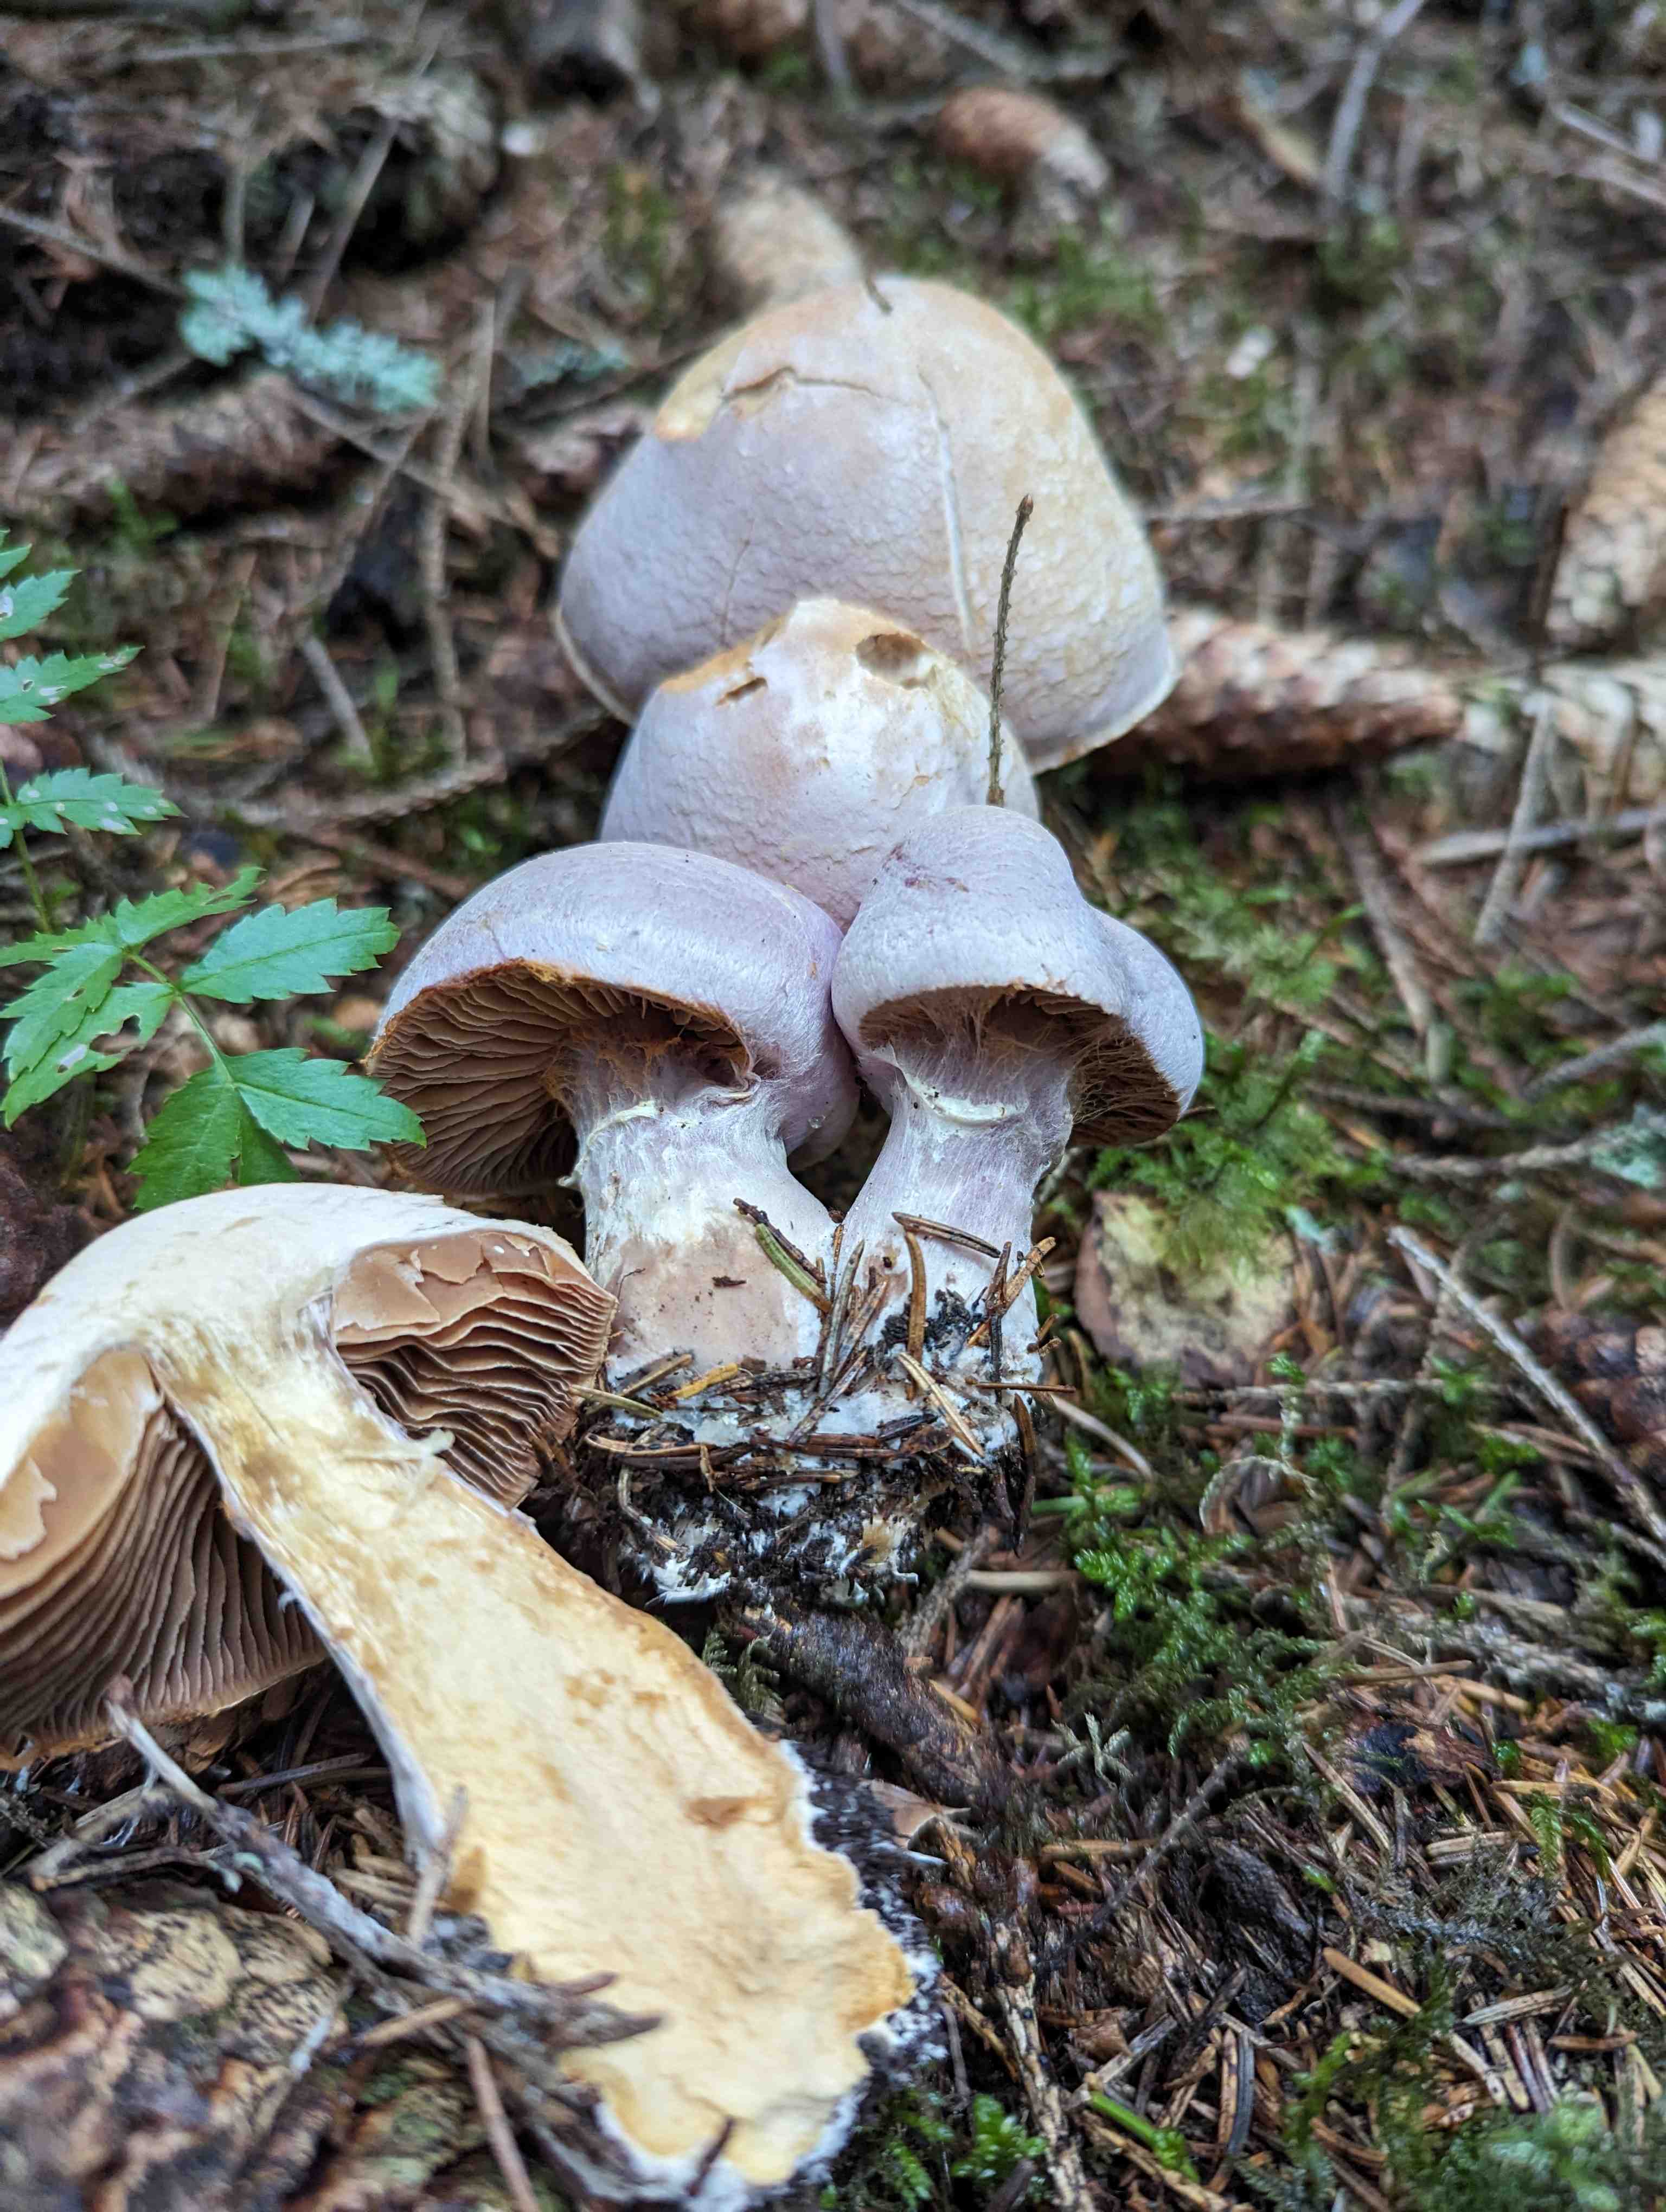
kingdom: Fungi
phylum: Basidiomycota
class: Agaricomycetes
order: Agaricales
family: Cortinariaceae
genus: Cortinarius
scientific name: Cortinarius traganus
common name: safrankødet slørhat
